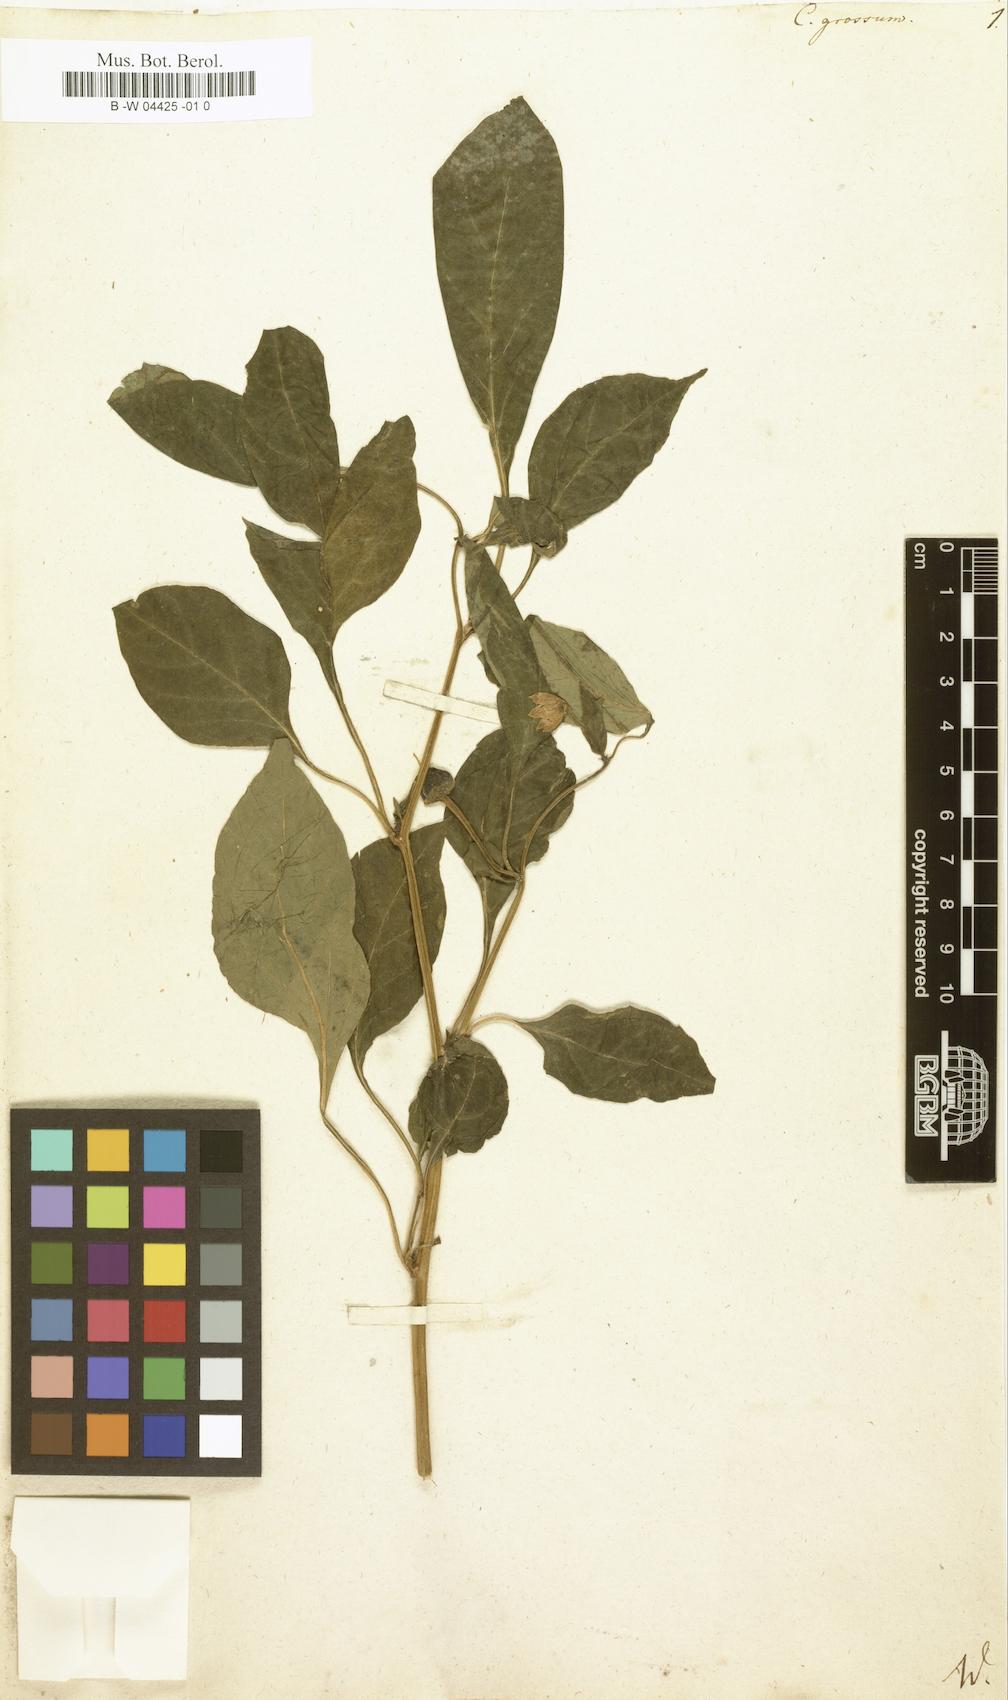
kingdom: Plantae
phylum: Tracheophyta
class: Magnoliopsida
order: Solanales
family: Solanaceae
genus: Capsicum
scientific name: Capsicum annuum
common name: Sweet pepper
